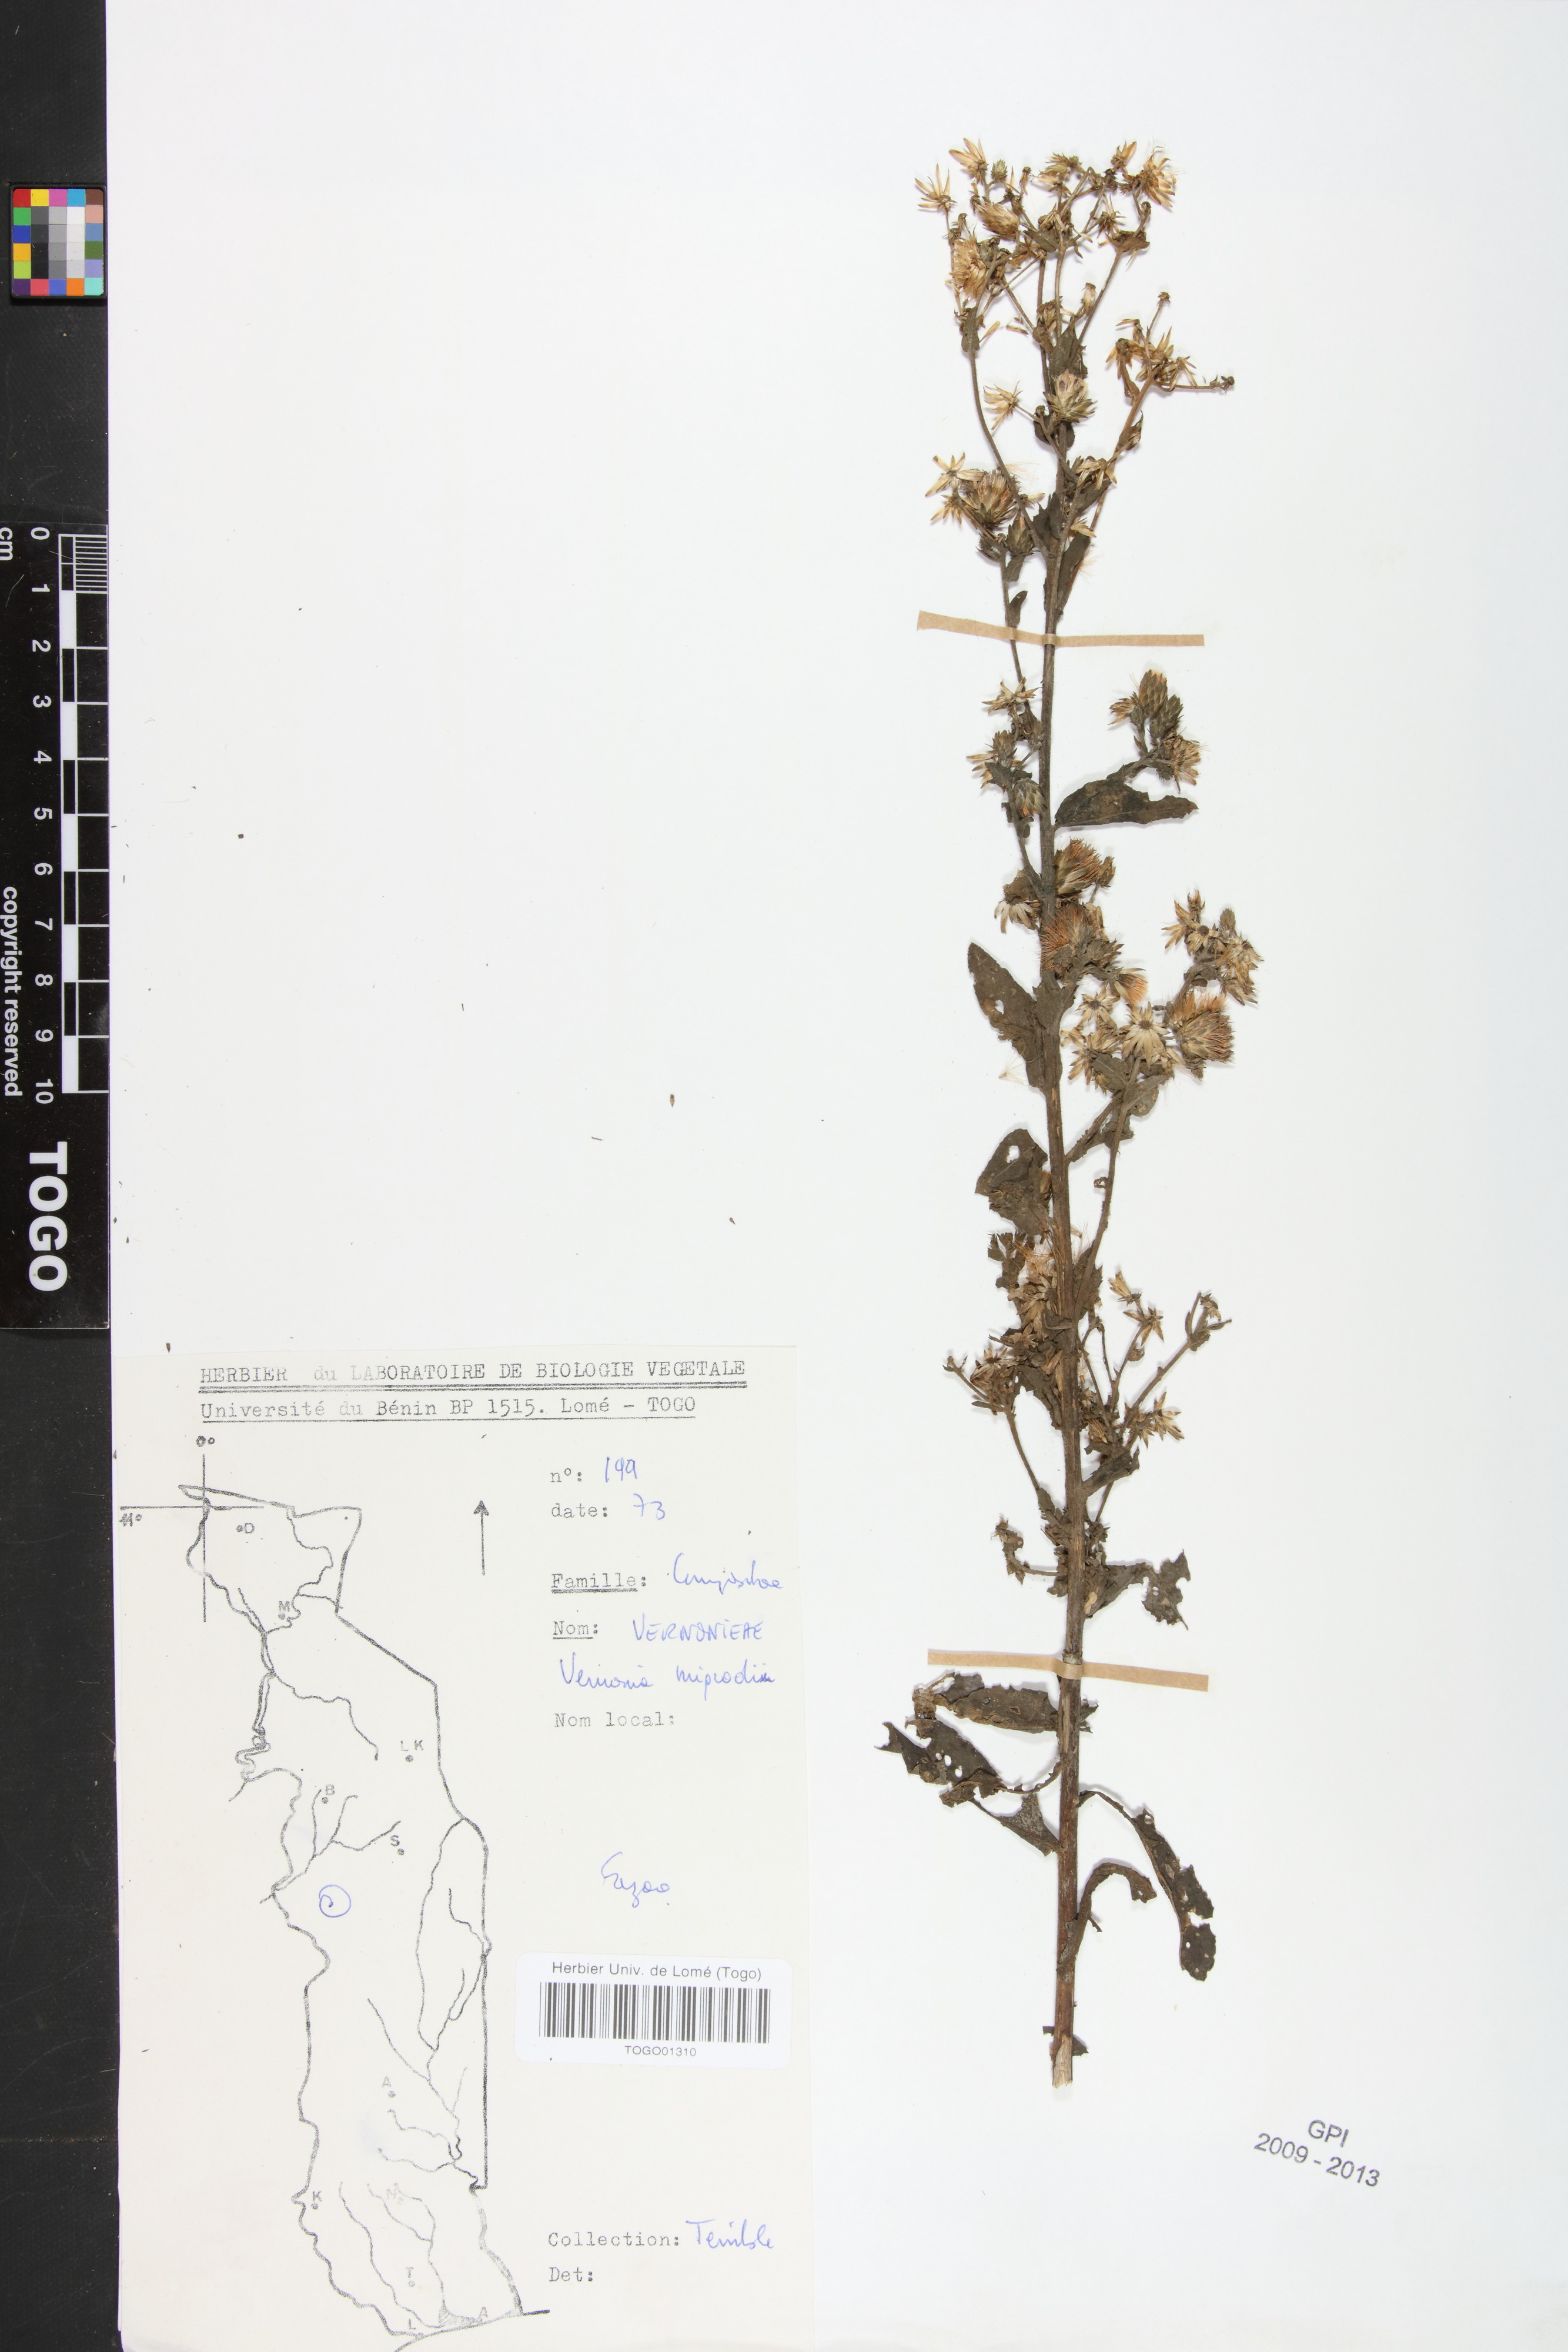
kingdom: Plantae
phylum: Tracheophyta
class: Magnoliopsida
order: Asterales
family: Asteraceae
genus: Vernoniastrum
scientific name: Vernoniastrum migeodii
